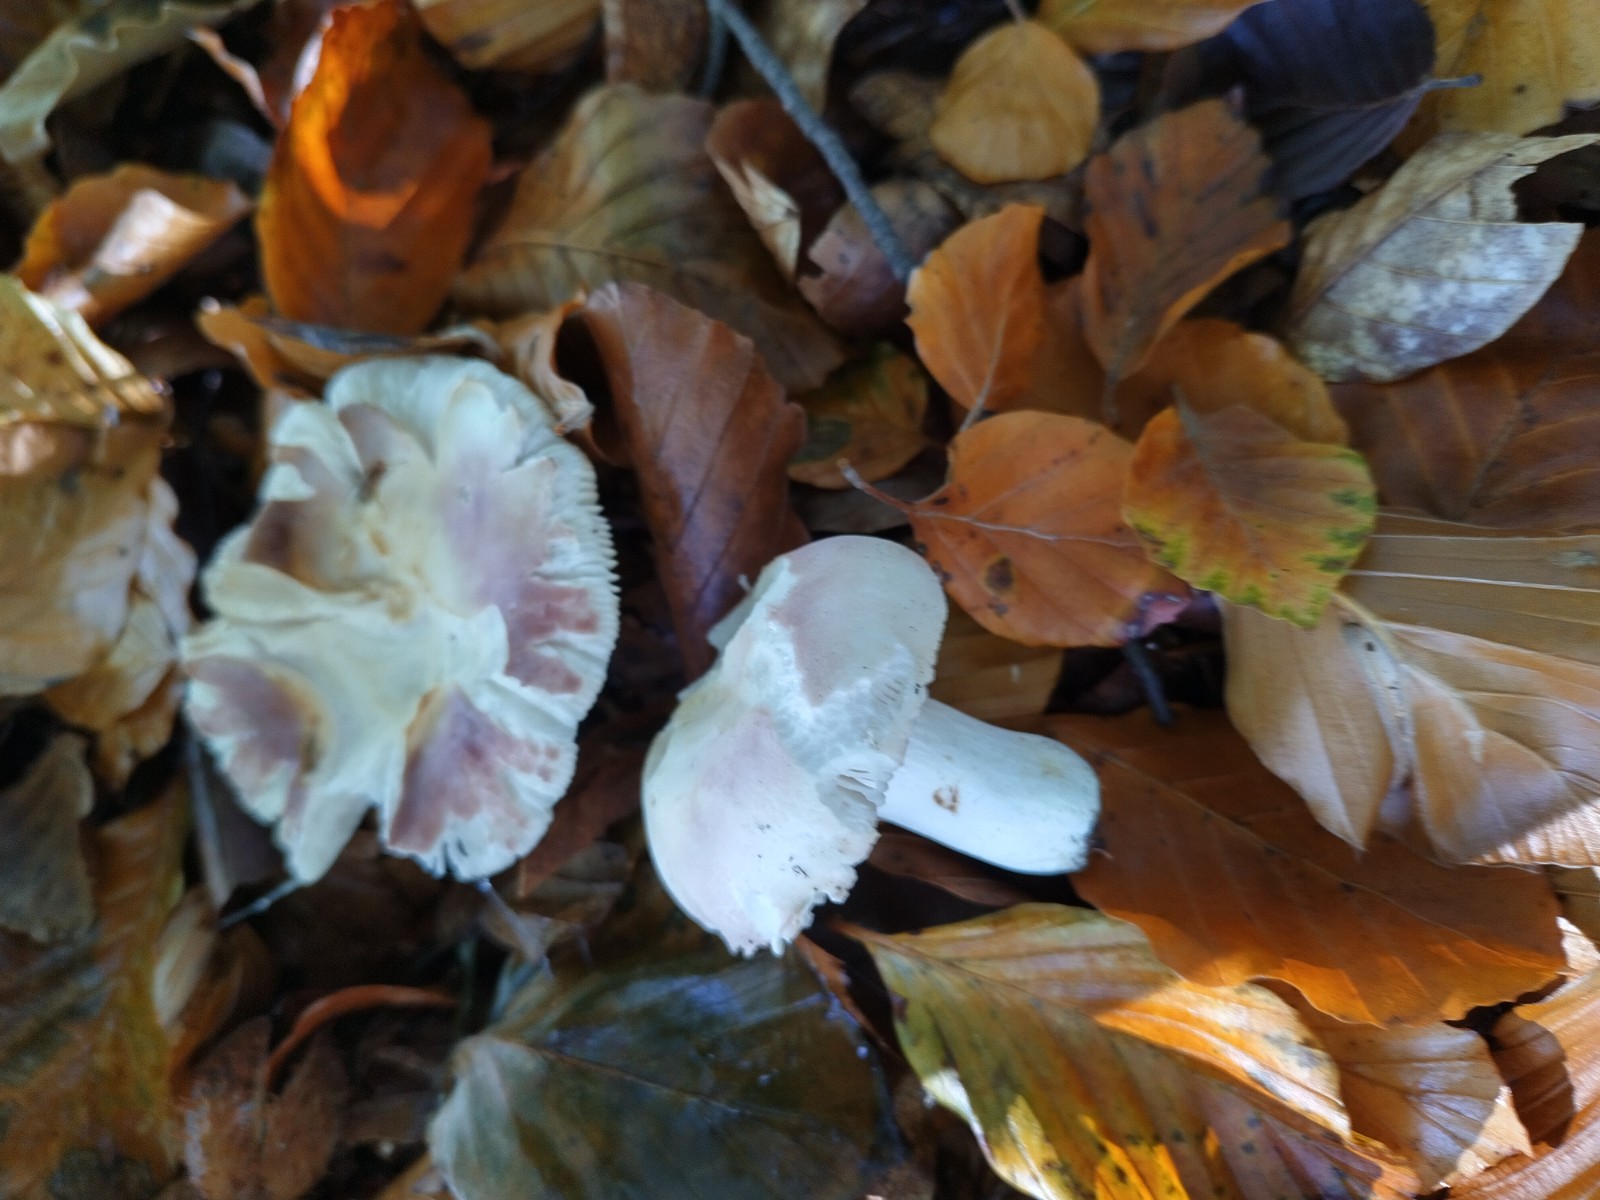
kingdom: Fungi
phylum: Basidiomycota
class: Agaricomycetes
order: Russulales
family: Russulaceae
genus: Russula
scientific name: Russula vesca
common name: spiselig skørhat
